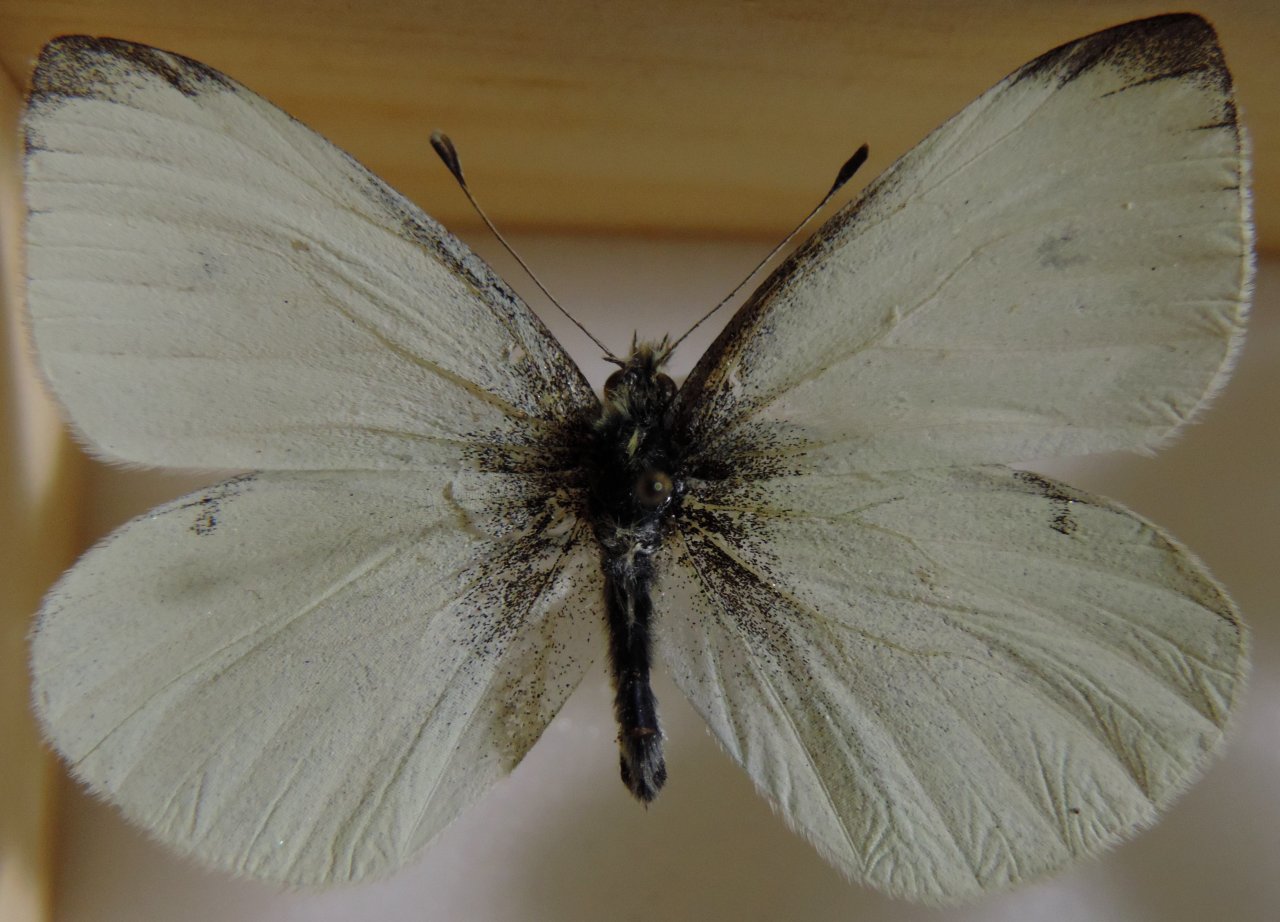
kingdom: Animalia
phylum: Arthropoda
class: Insecta
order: Lepidoptera
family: Pieridae
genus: Pieris
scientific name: Pieris rapae
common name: Cabbage White
